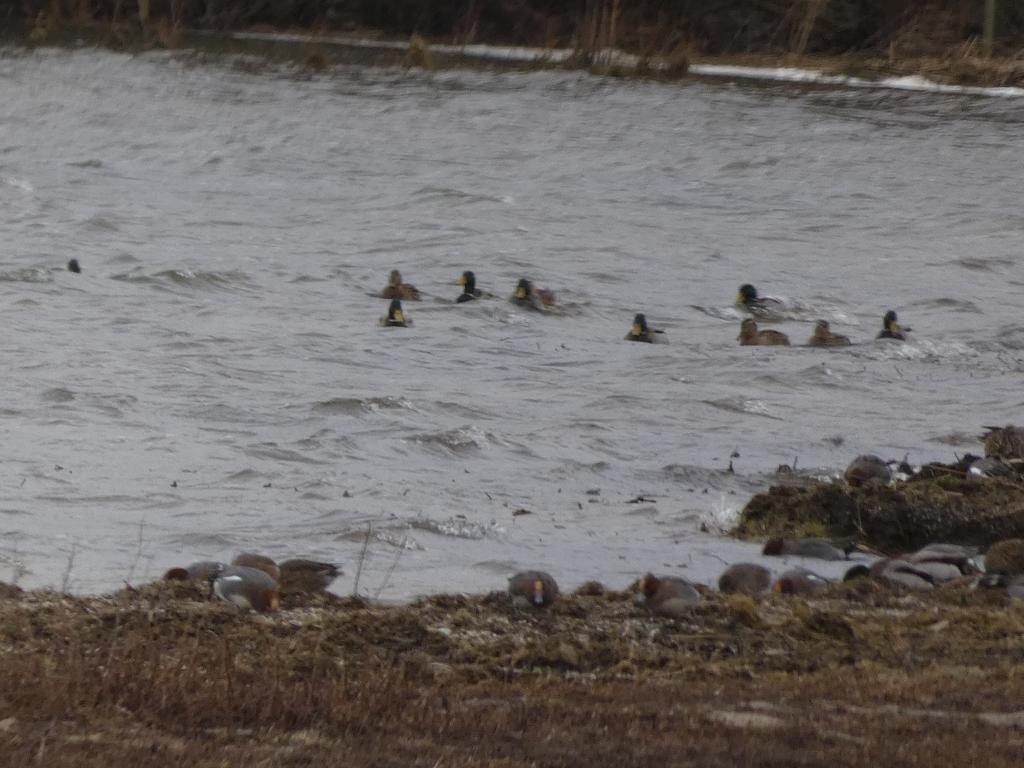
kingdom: Animalia
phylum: Chordata
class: Aves
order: Anseriformes
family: Anatidae
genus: Anas
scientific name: Anas platyrhynchos
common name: Gråand
